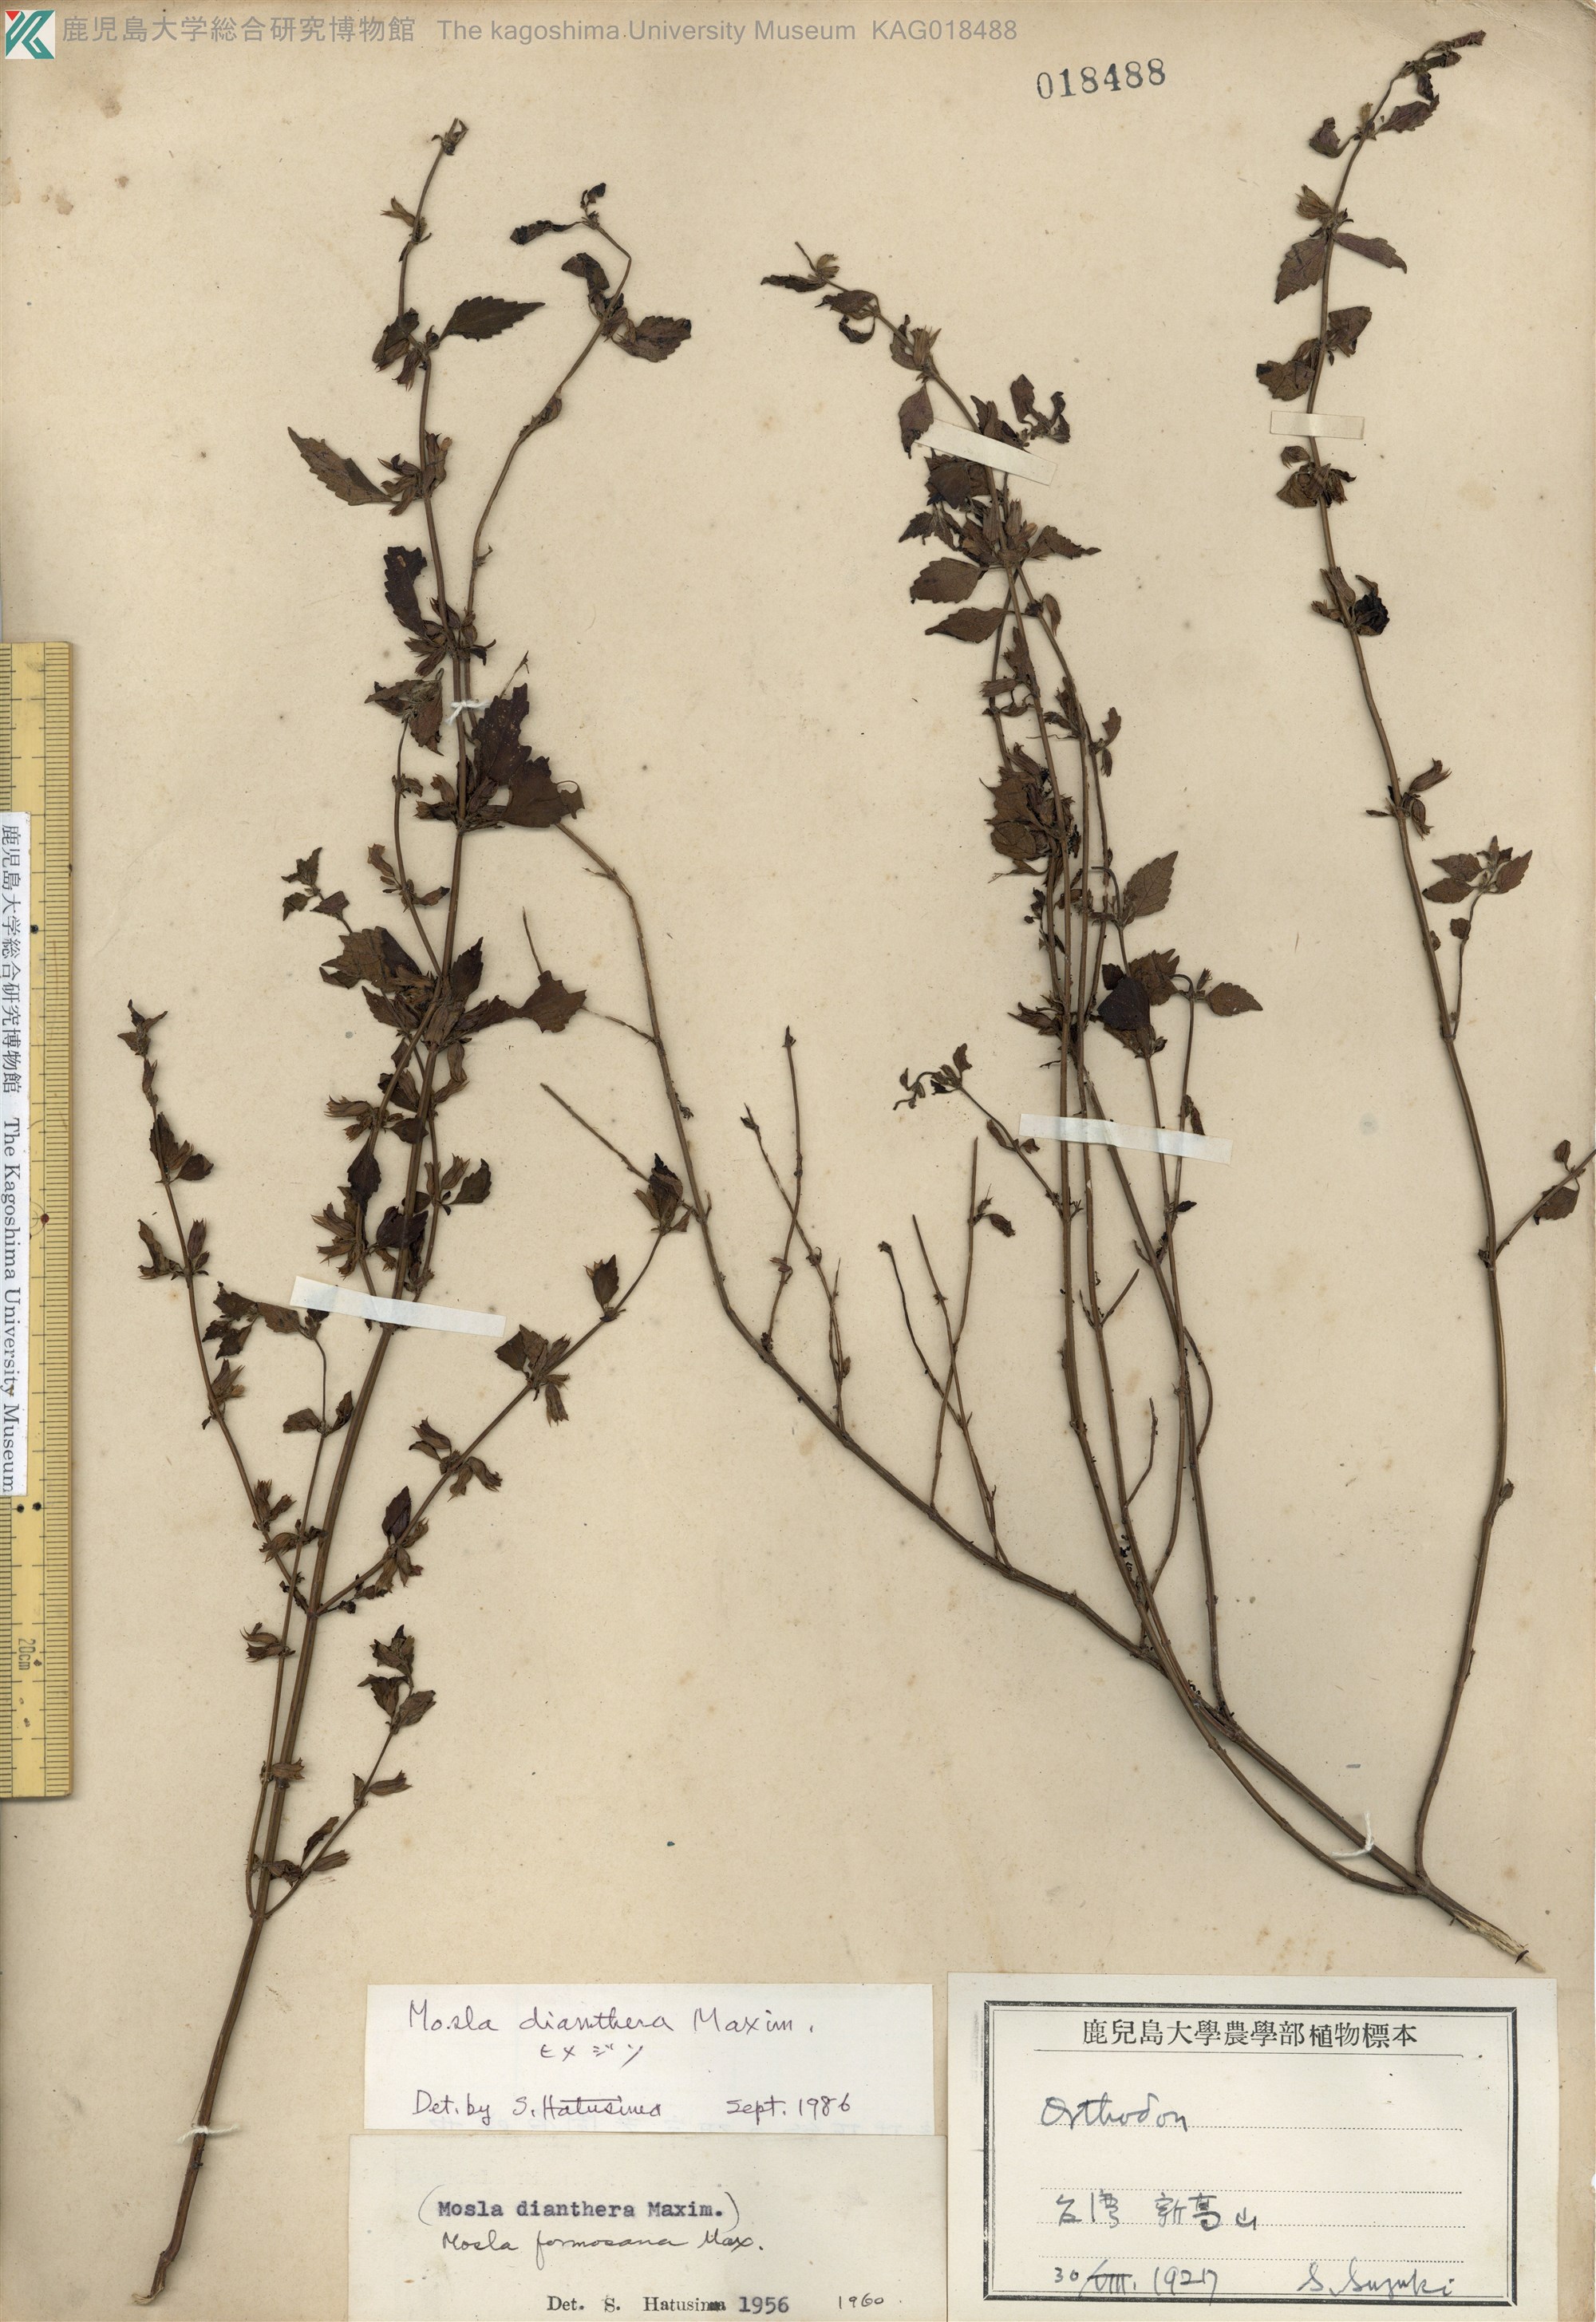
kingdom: Plantae
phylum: Tracheophyta
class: Magnoliopsida
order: Lamiales
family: Lamiaceae
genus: Mosla
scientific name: Mosla dianthera
